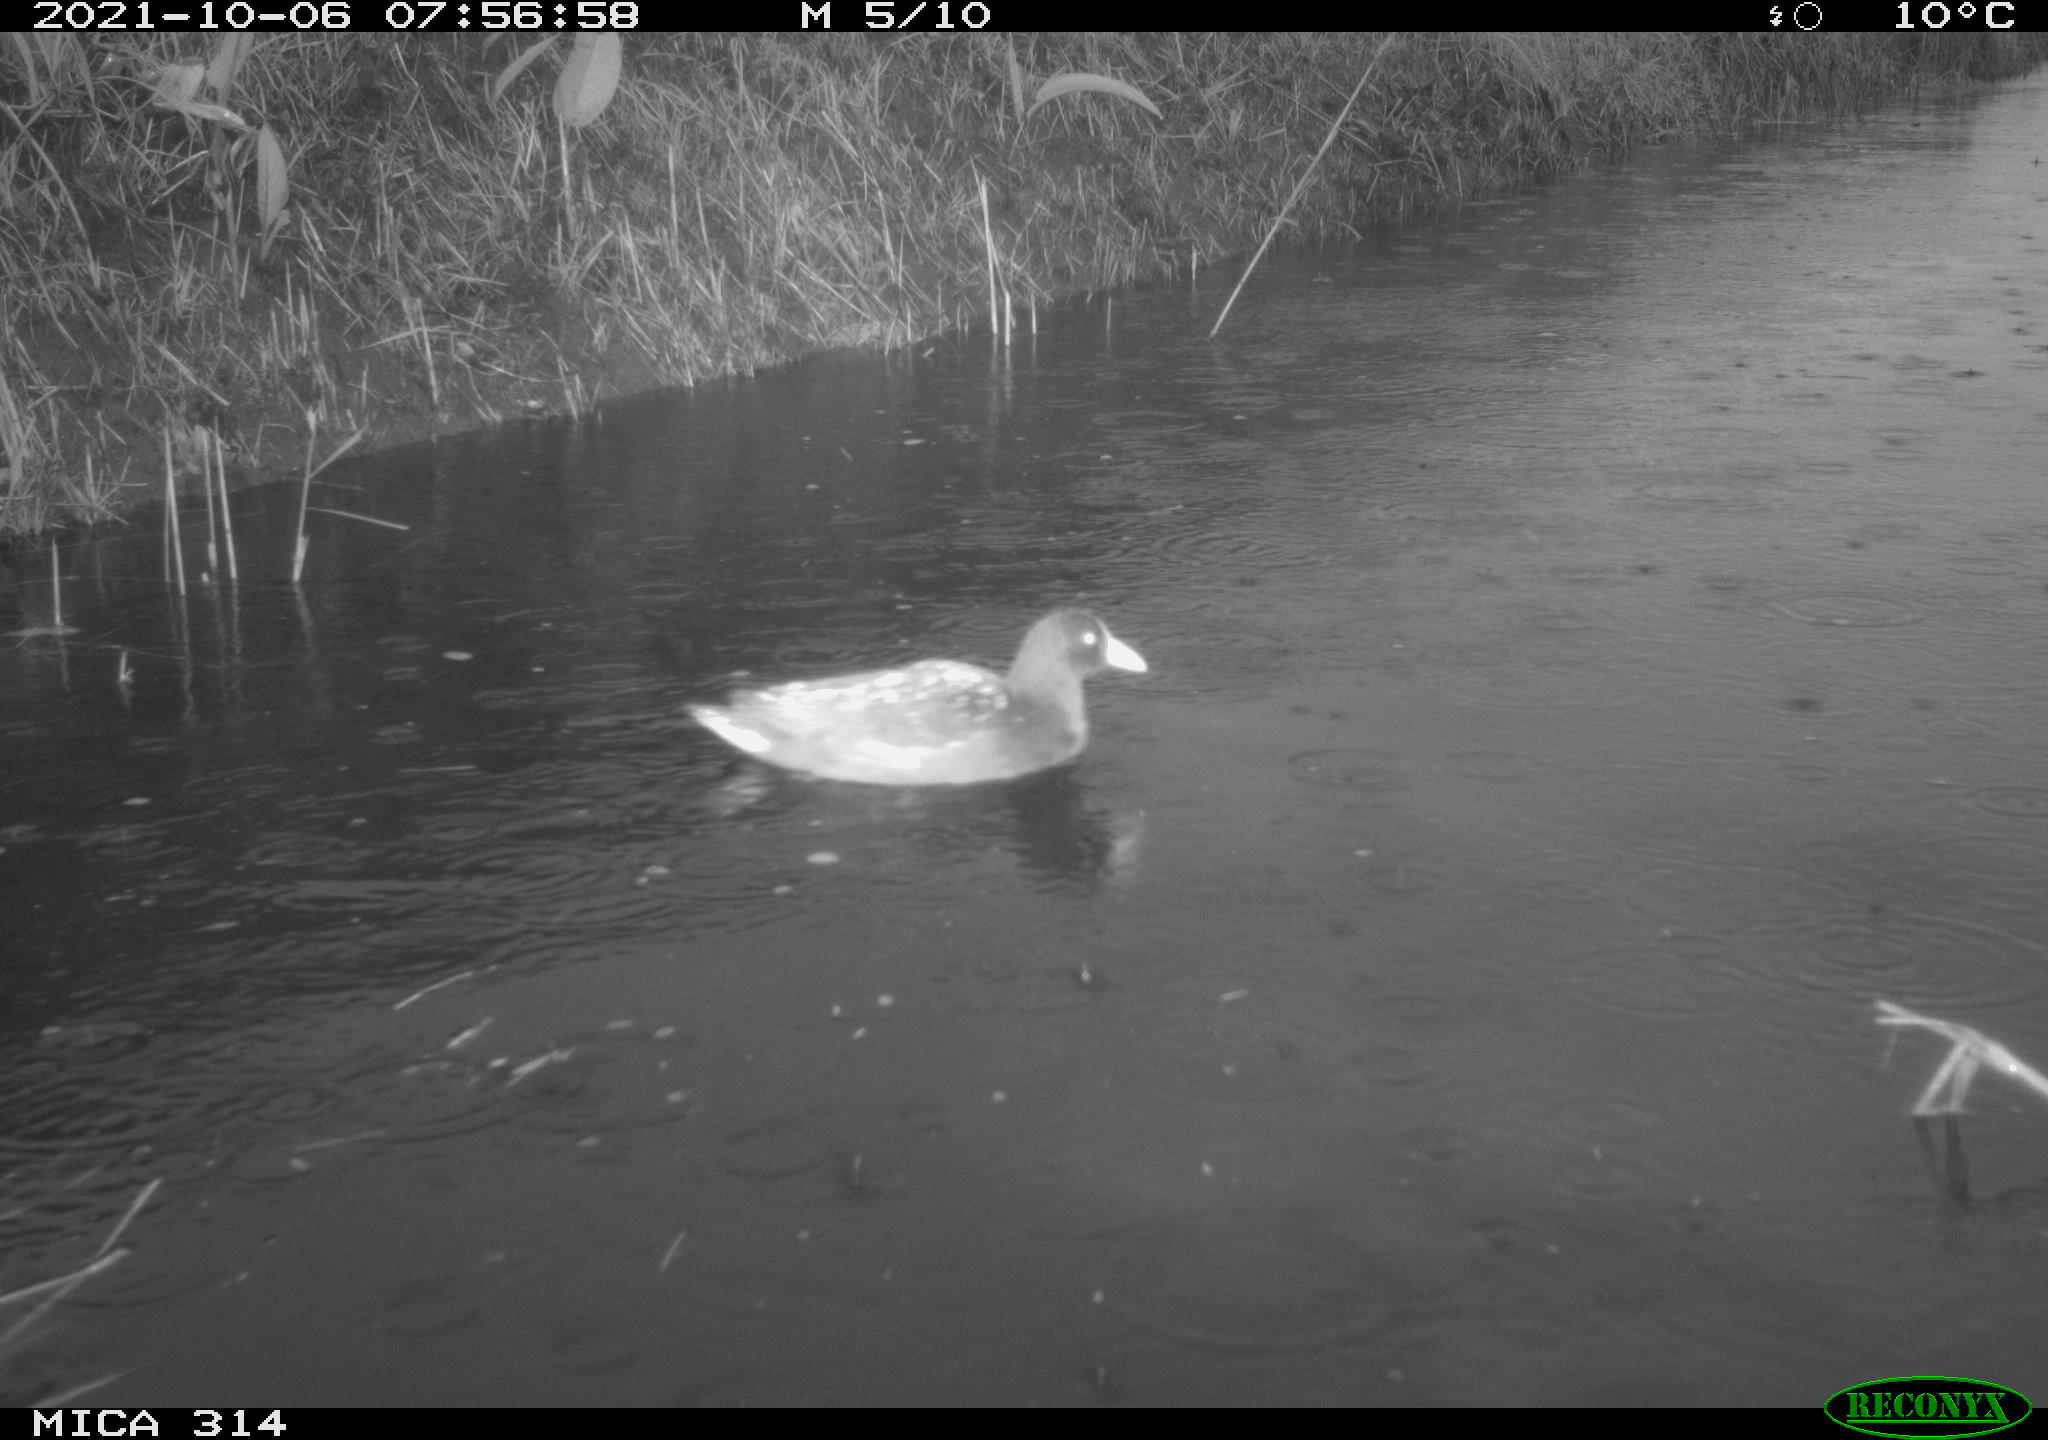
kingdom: Animalia
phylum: Chordata
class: Aves
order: Gruiformes
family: Rallidae
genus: Gallinula
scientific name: Gallinula chloropus
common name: Common moorhen
